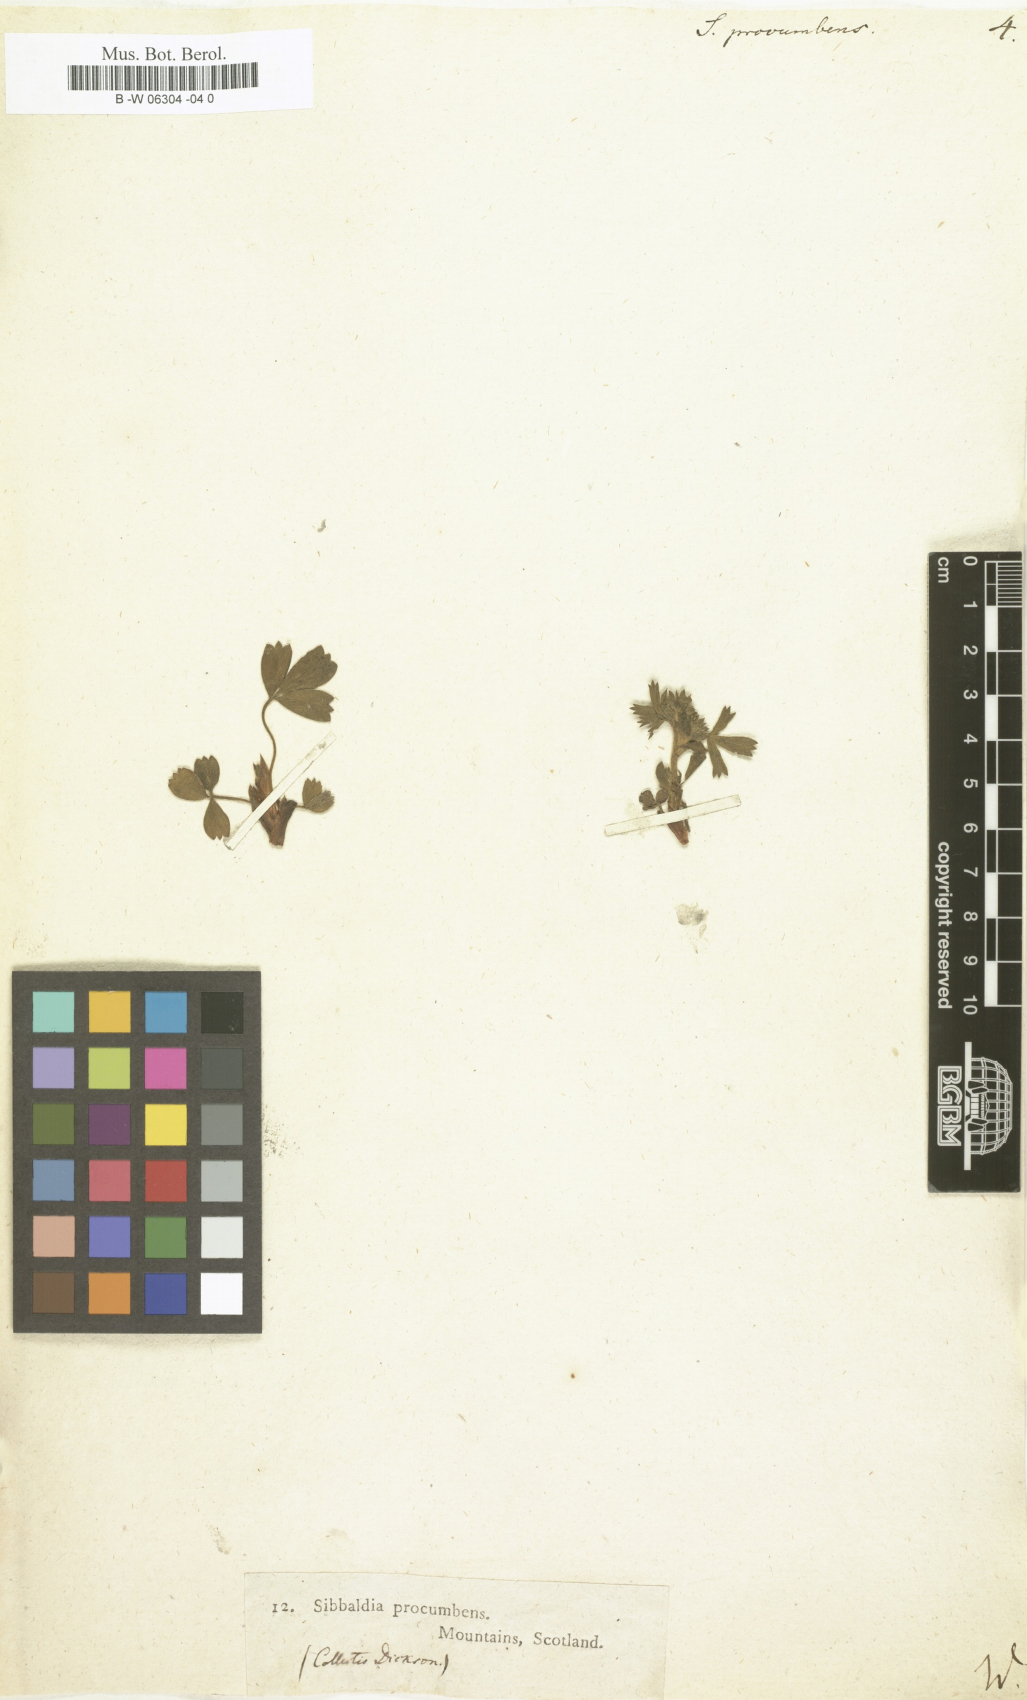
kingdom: Plantae
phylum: Tracheophyta
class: Magnoliopsida
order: Rosales
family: Rosaceae
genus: Sibbaldia
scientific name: Sibbaldia procumbens
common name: Creeping sibbaldia
